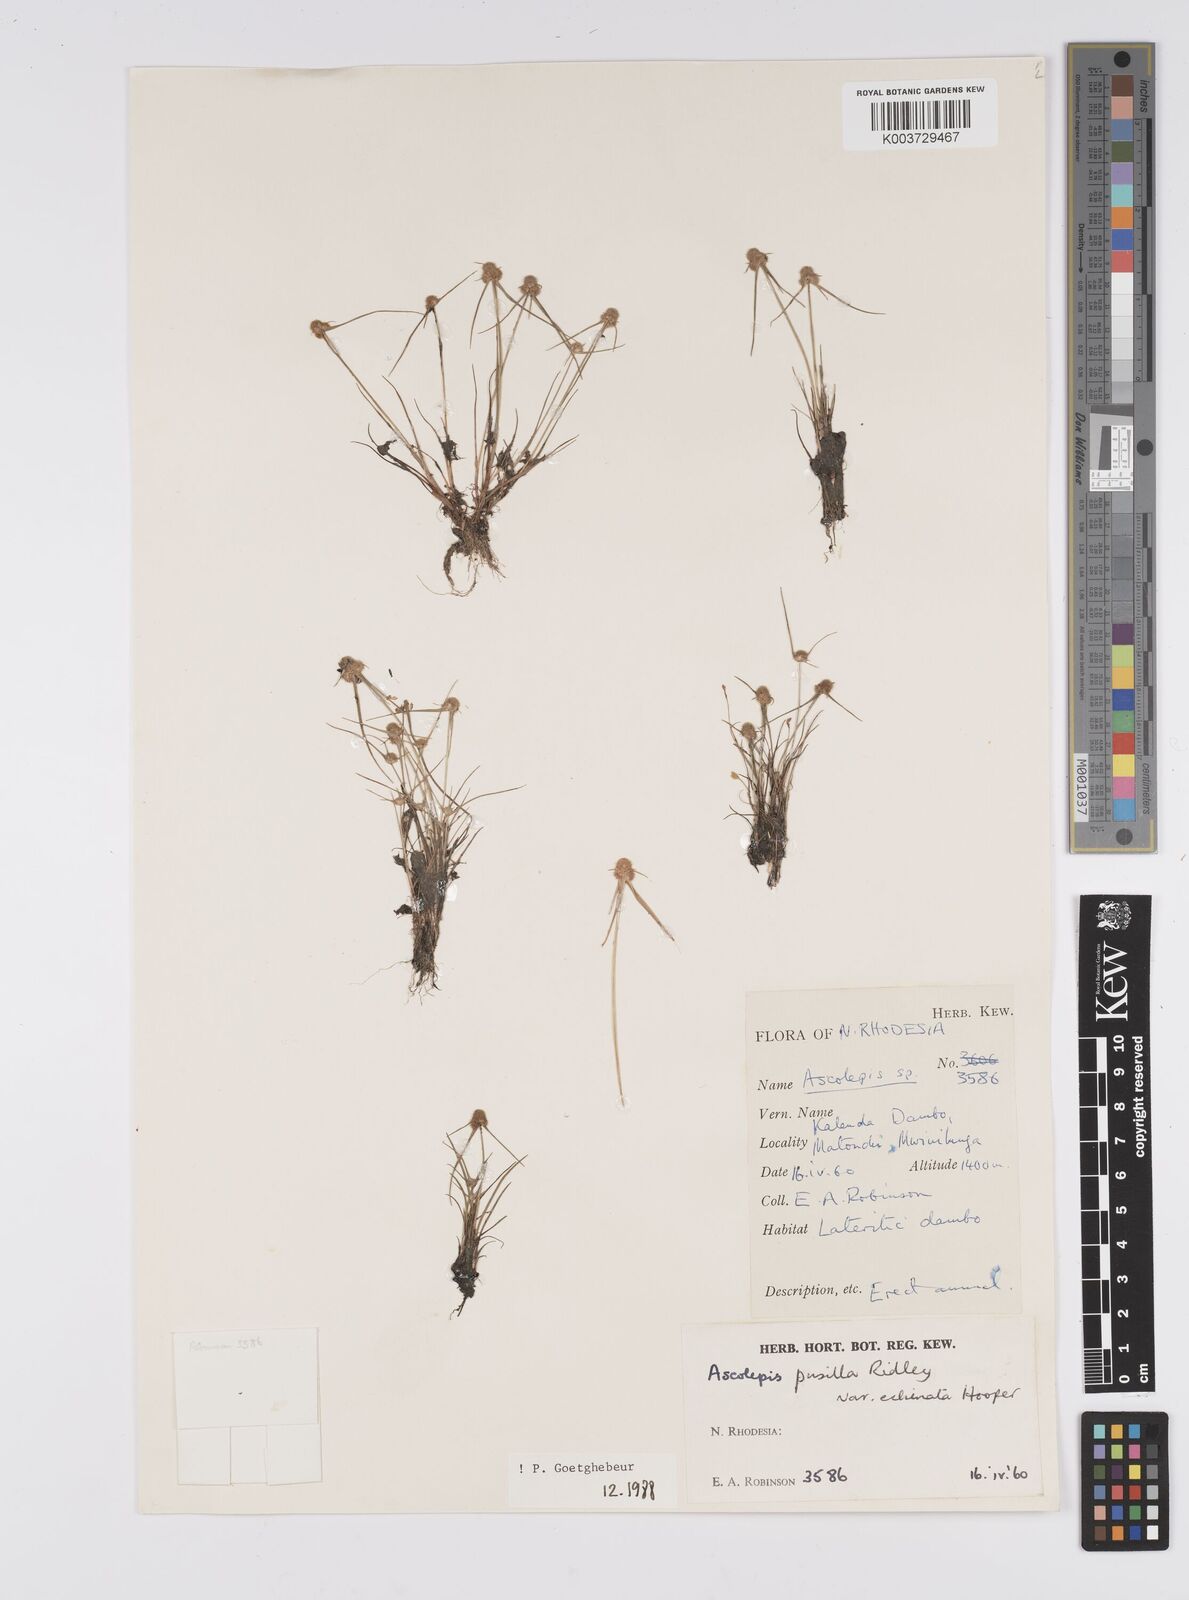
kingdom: Plantae
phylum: Tracheophyta
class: Liliopsida
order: Poales
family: Cyperaceae
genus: Cyperus
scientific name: Cyperus
